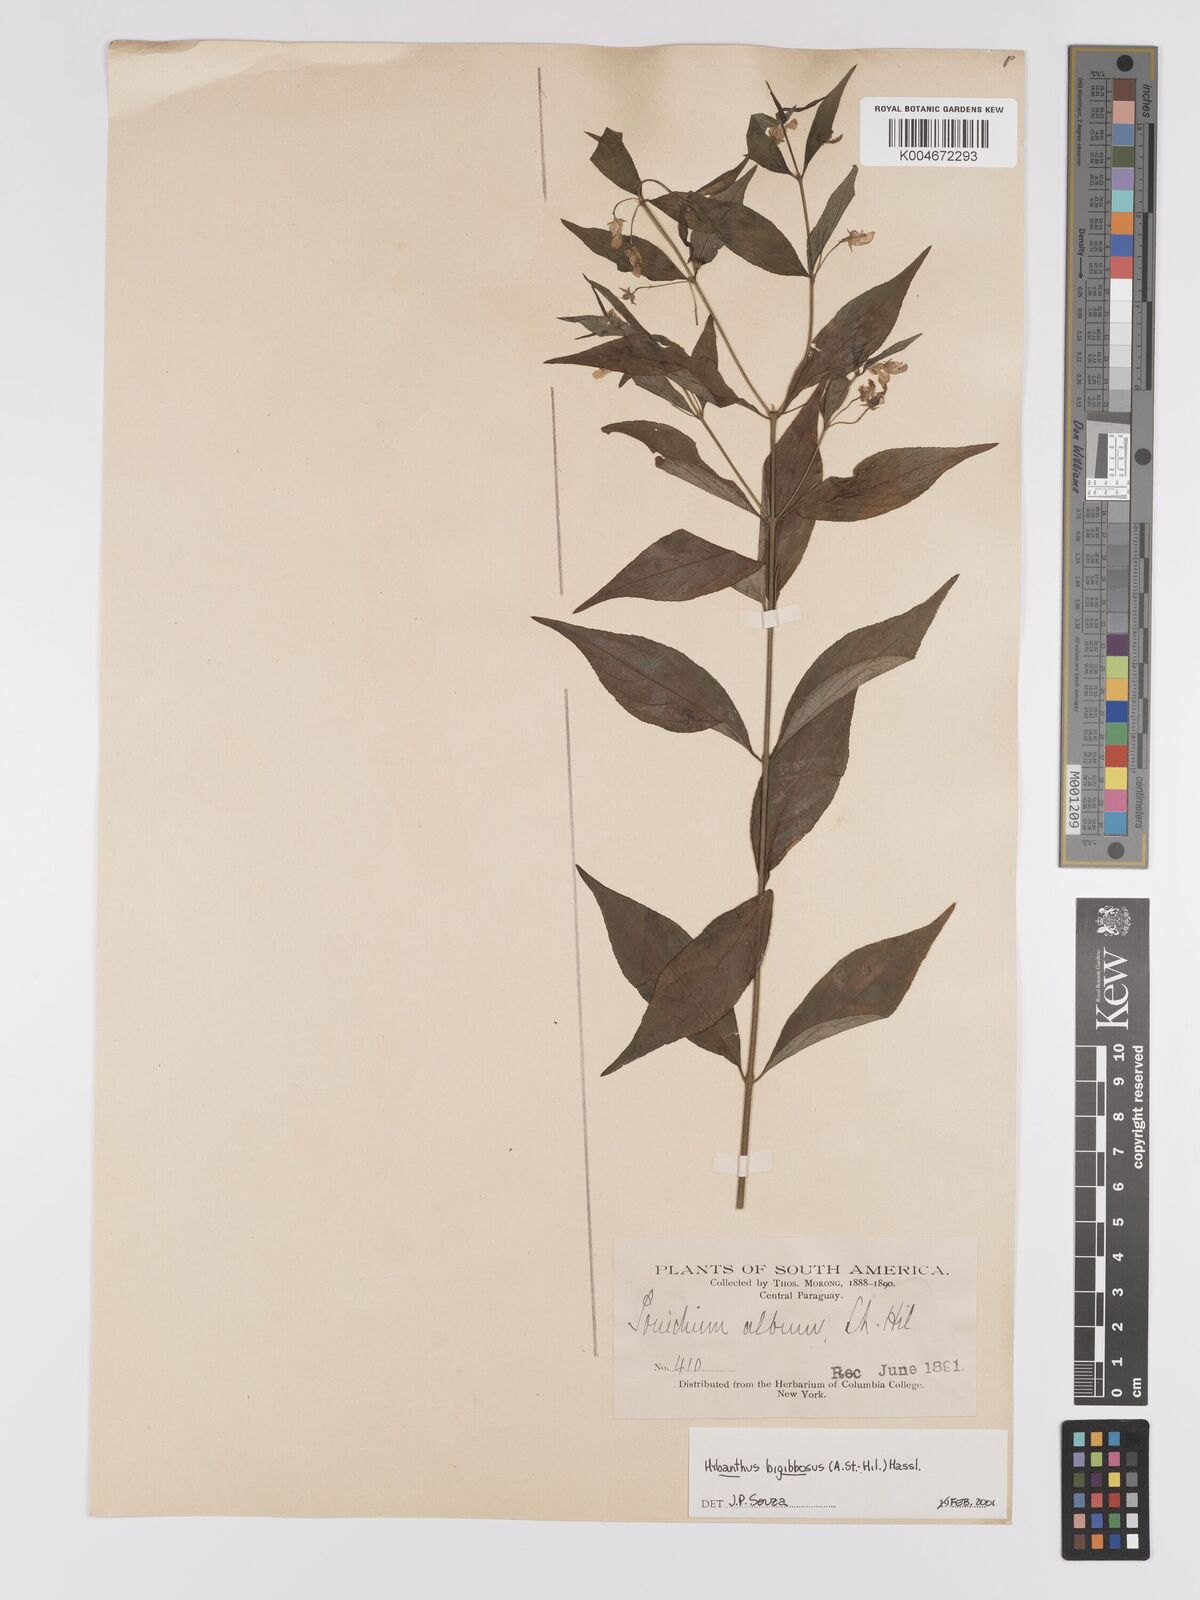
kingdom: Plantae
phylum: Tracheophyta
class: Magnoliopsida
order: Malpighiales
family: Violaceae
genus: Pombalia
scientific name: Pombalia bigibbosa
